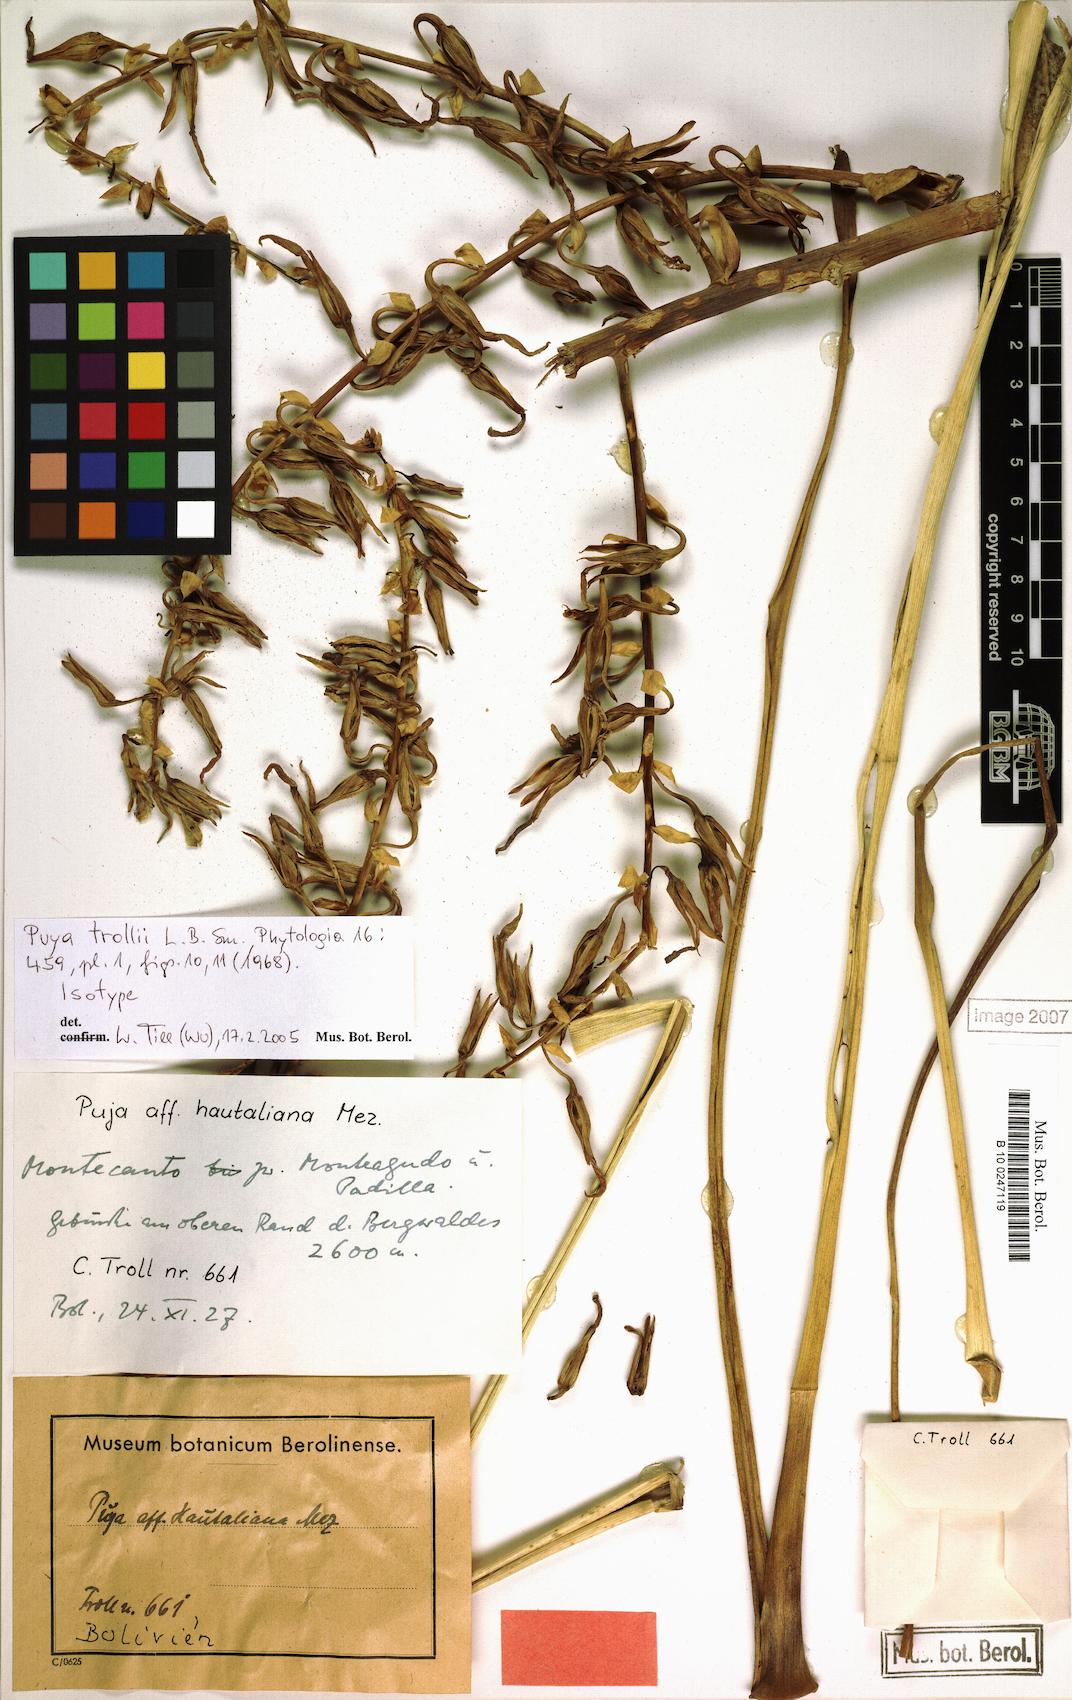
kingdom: Plantae
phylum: Tracheophyta
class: Liliopsida
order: Poales
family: Bromeliaceae
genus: Puya
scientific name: Puya trollii
